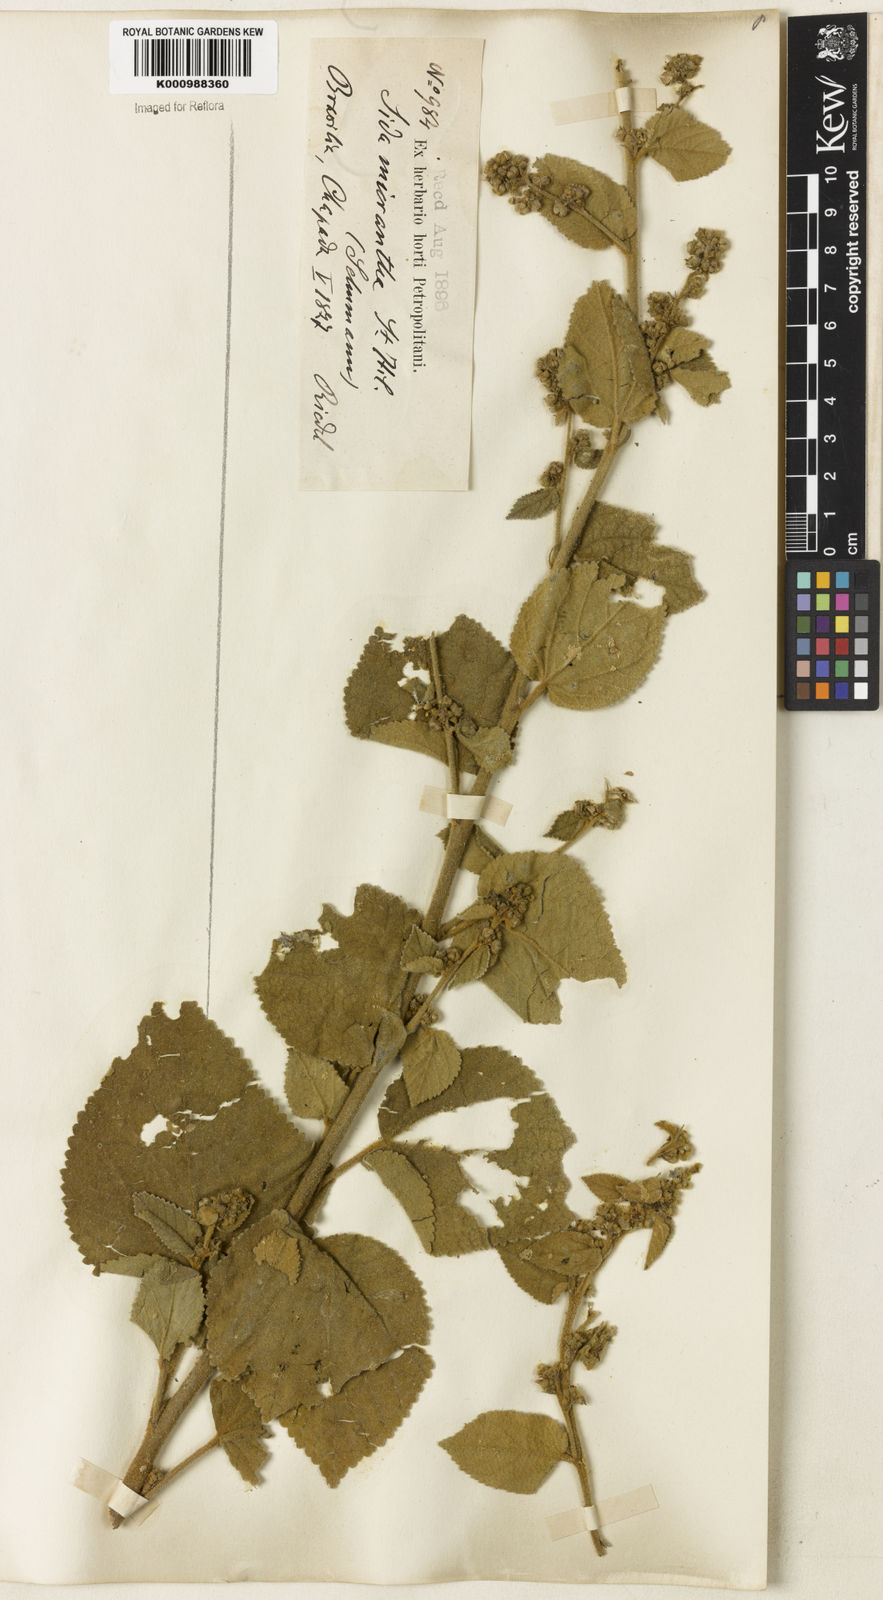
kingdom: Plantae
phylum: Tracheophyta
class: Magnoliopsida
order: Malvales
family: Malvaceae
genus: Sidastrum
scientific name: Sidastrum micranthum
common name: Dainty sandmallow
